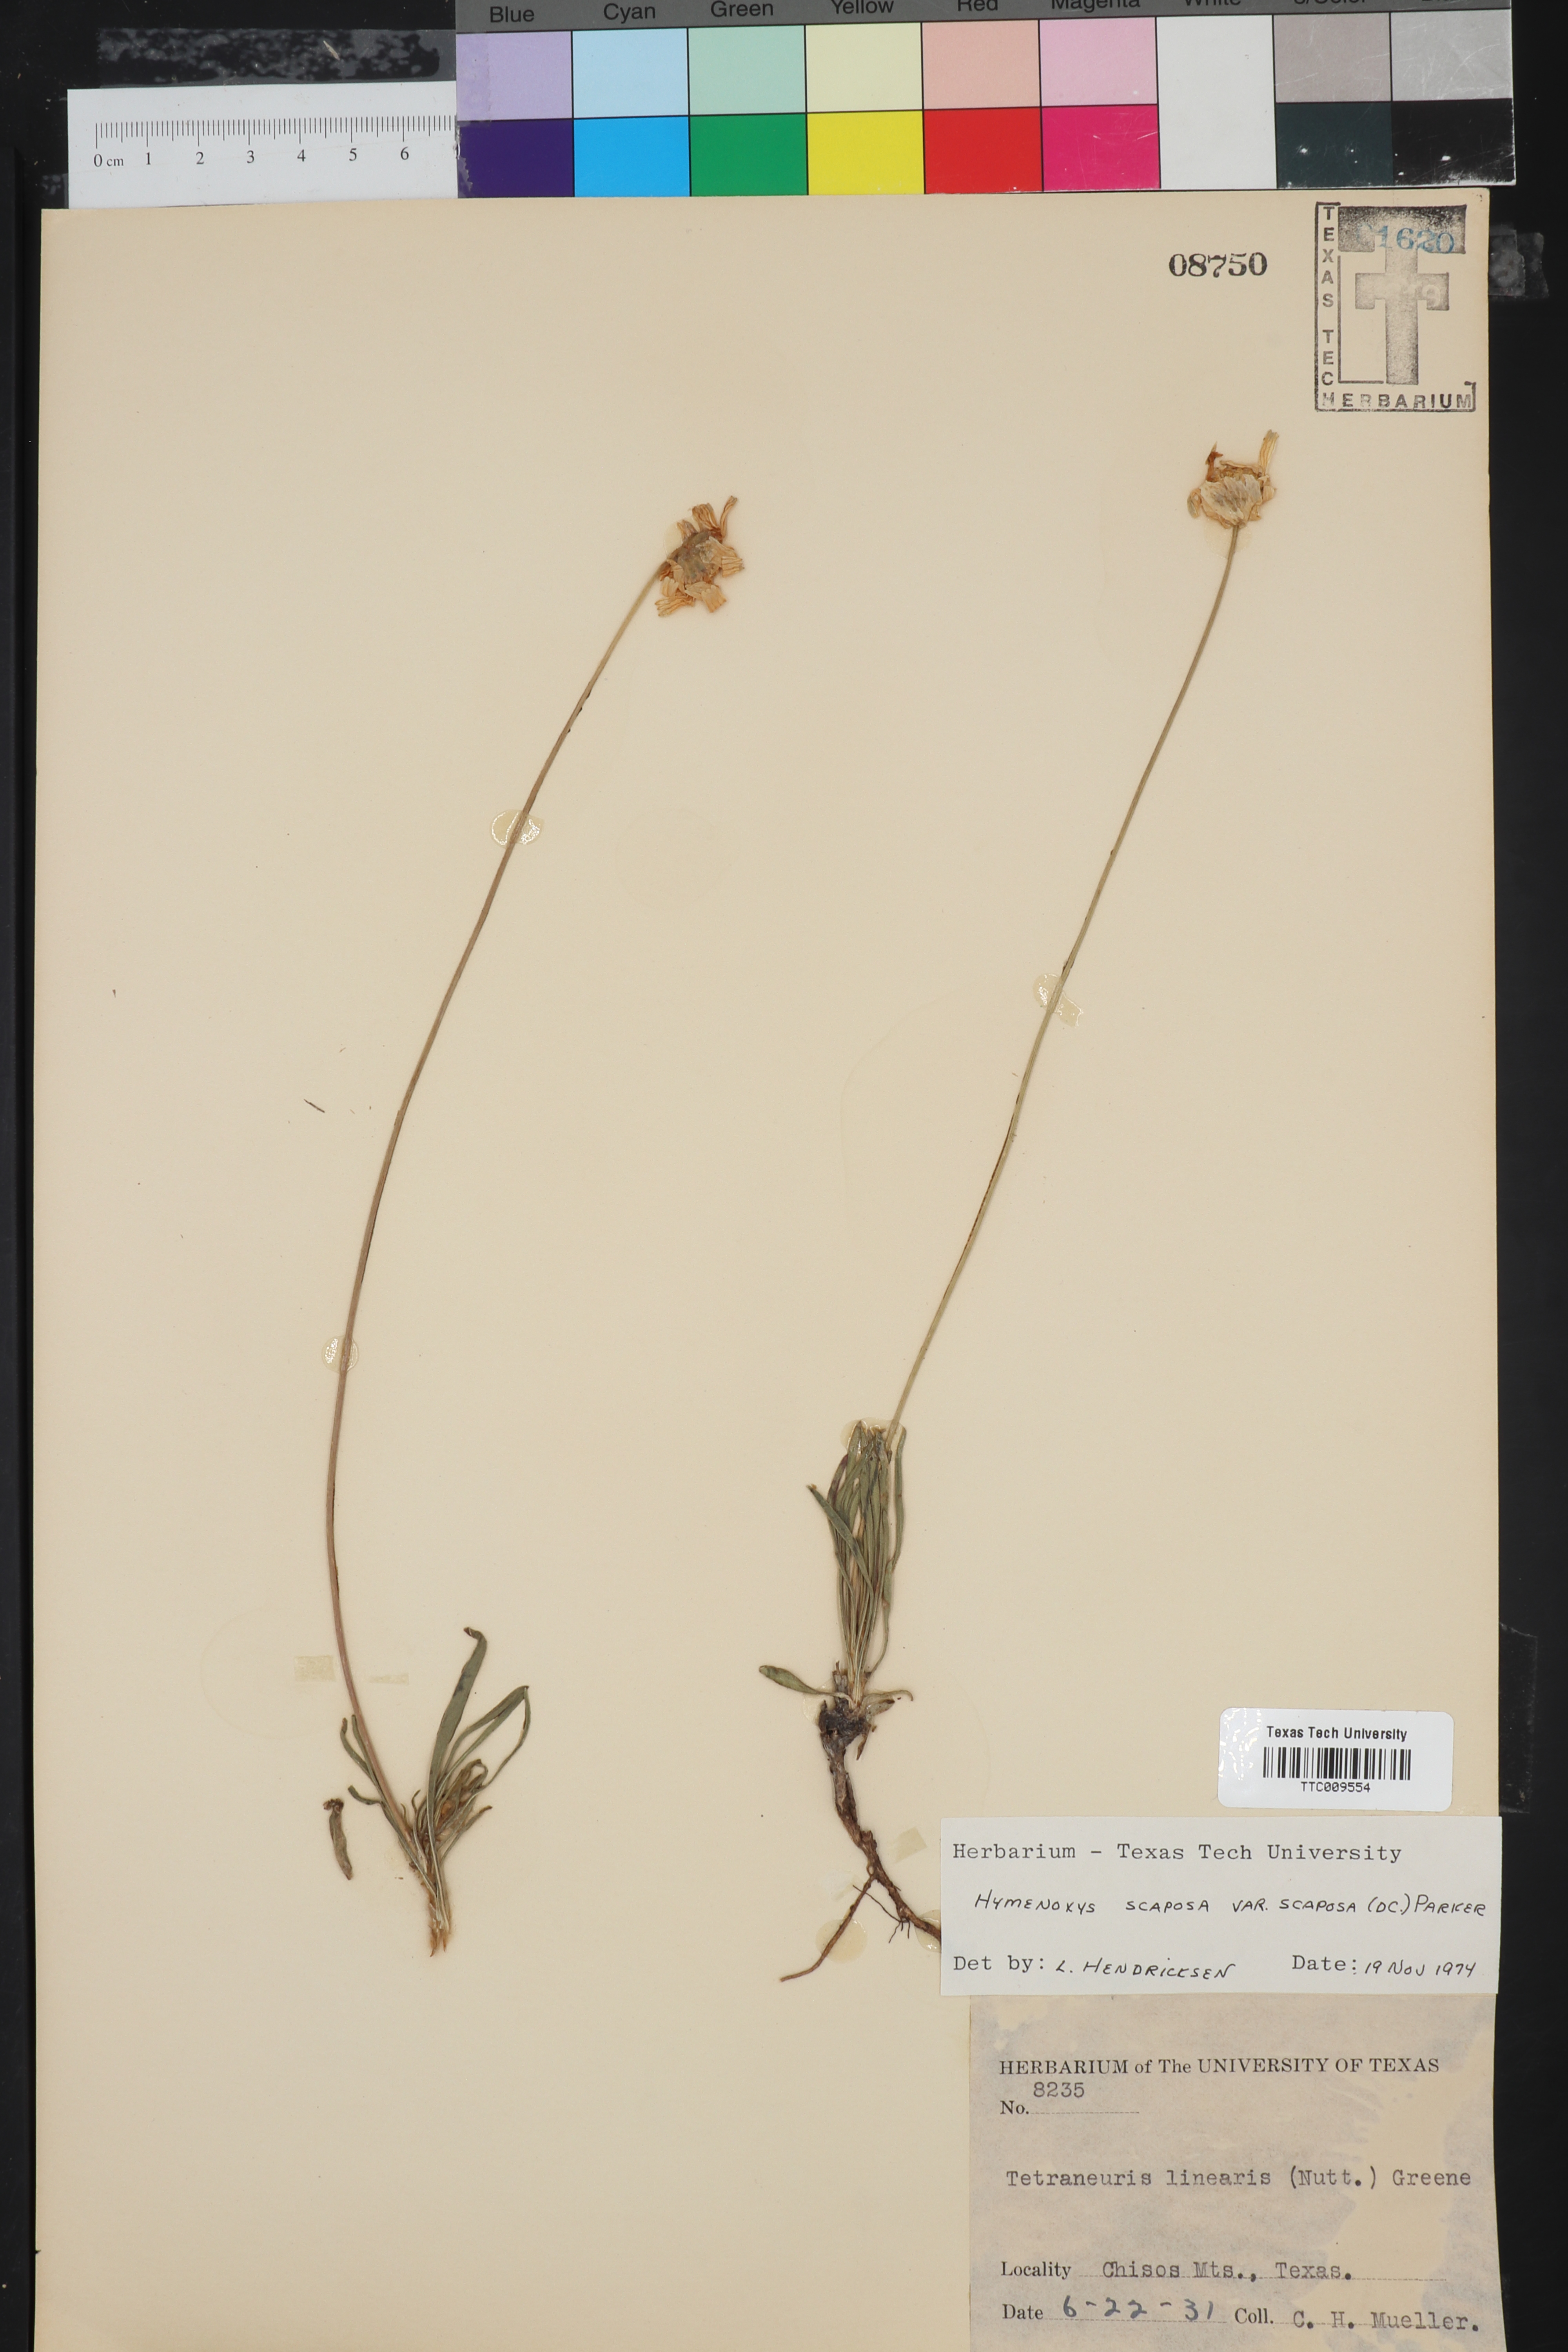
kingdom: Plantae
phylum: Tracheophyta
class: Magnoliopsida
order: Asterales
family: Asteraceae
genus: Tetraneuris
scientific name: Tetraneuris scaposa
